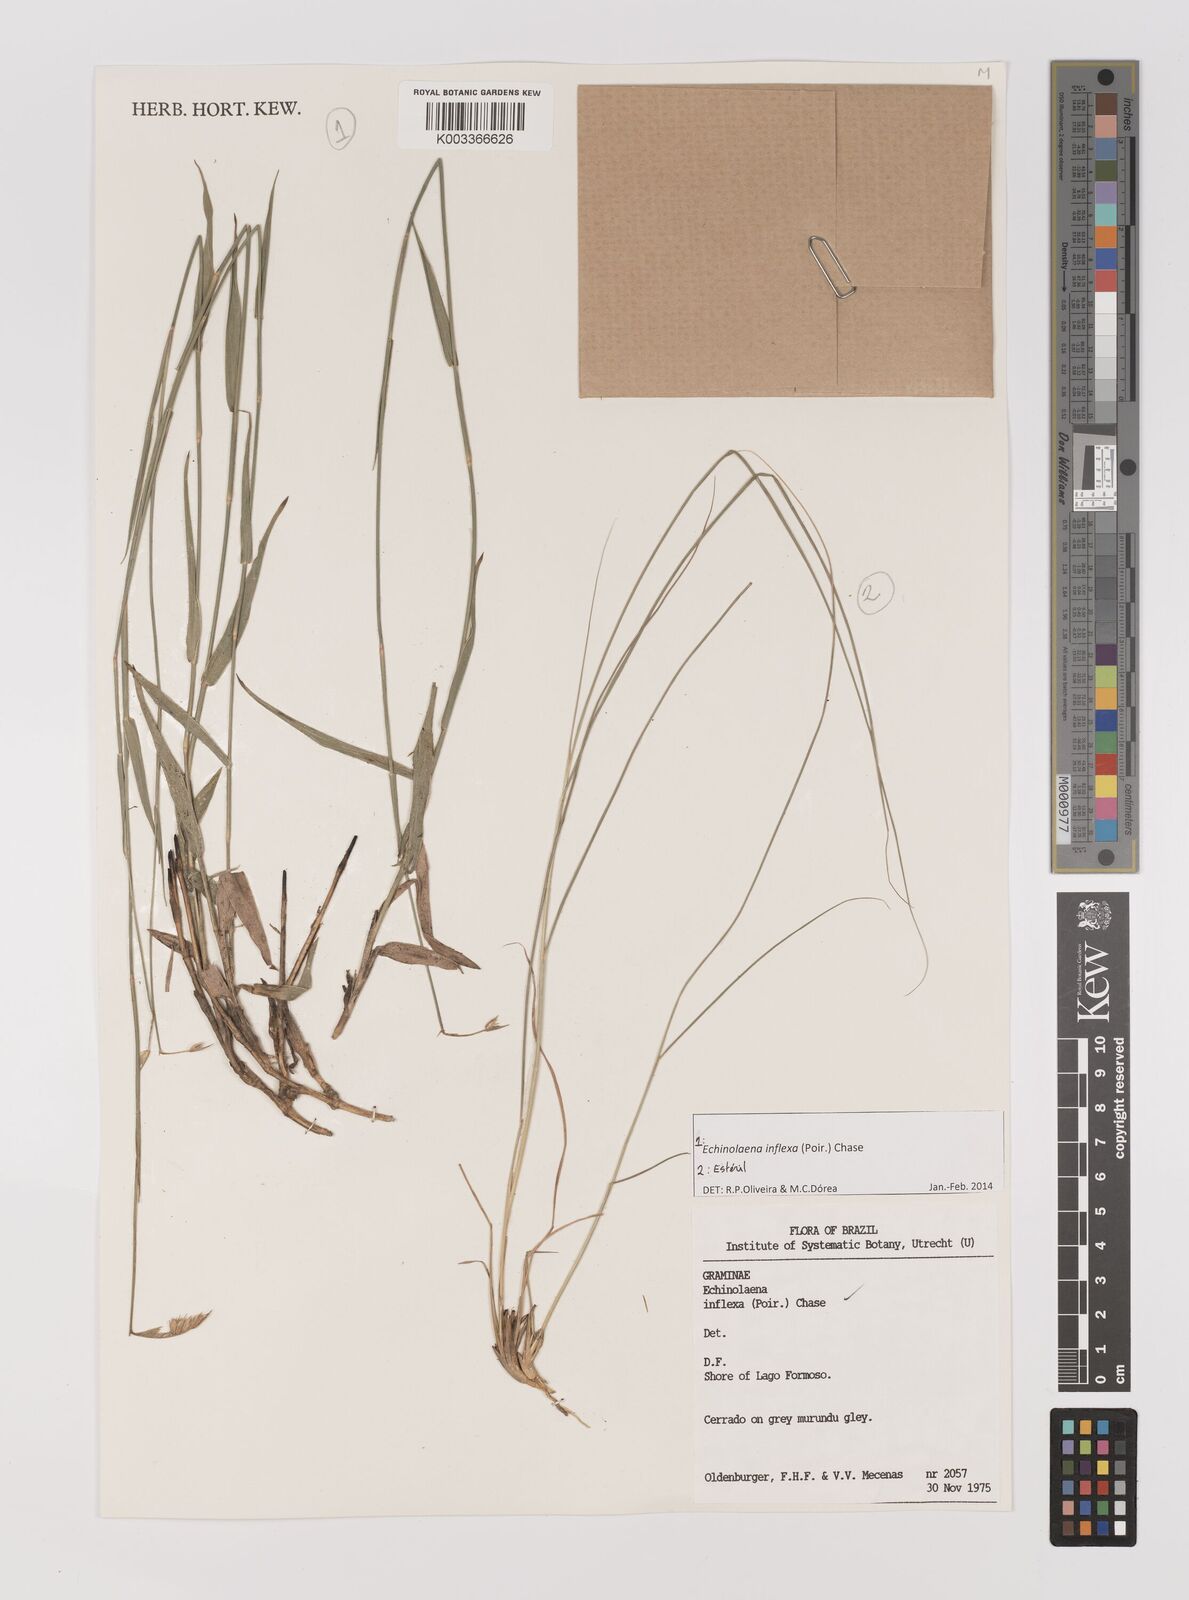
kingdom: Plantae
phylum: Tracheophyta
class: Liliopsida
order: Poales
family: Poaceae
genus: Echinolaena
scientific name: Echinolaena inflexa
